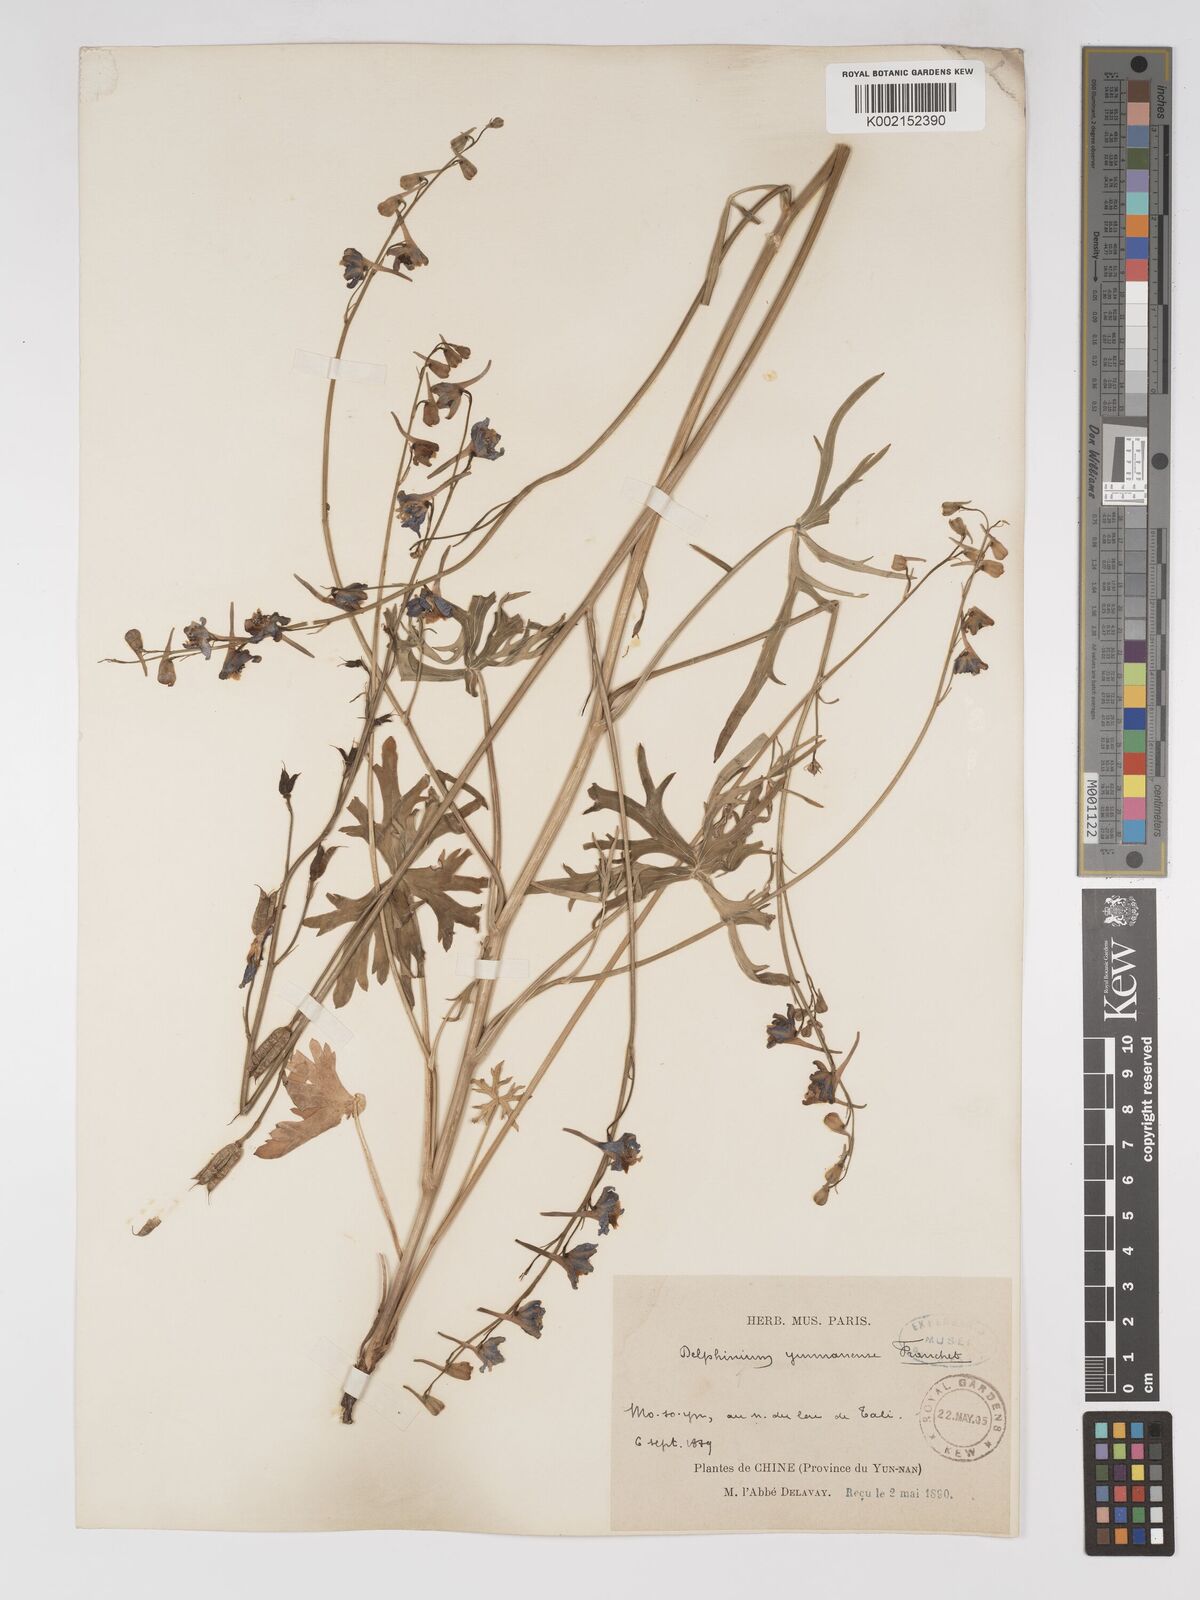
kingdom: Plantae
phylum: Tracheophyta
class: Magnoliopsida
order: Ranunculales
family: Ranunculaceae
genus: Delphinium
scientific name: Delphinium yunnanense
